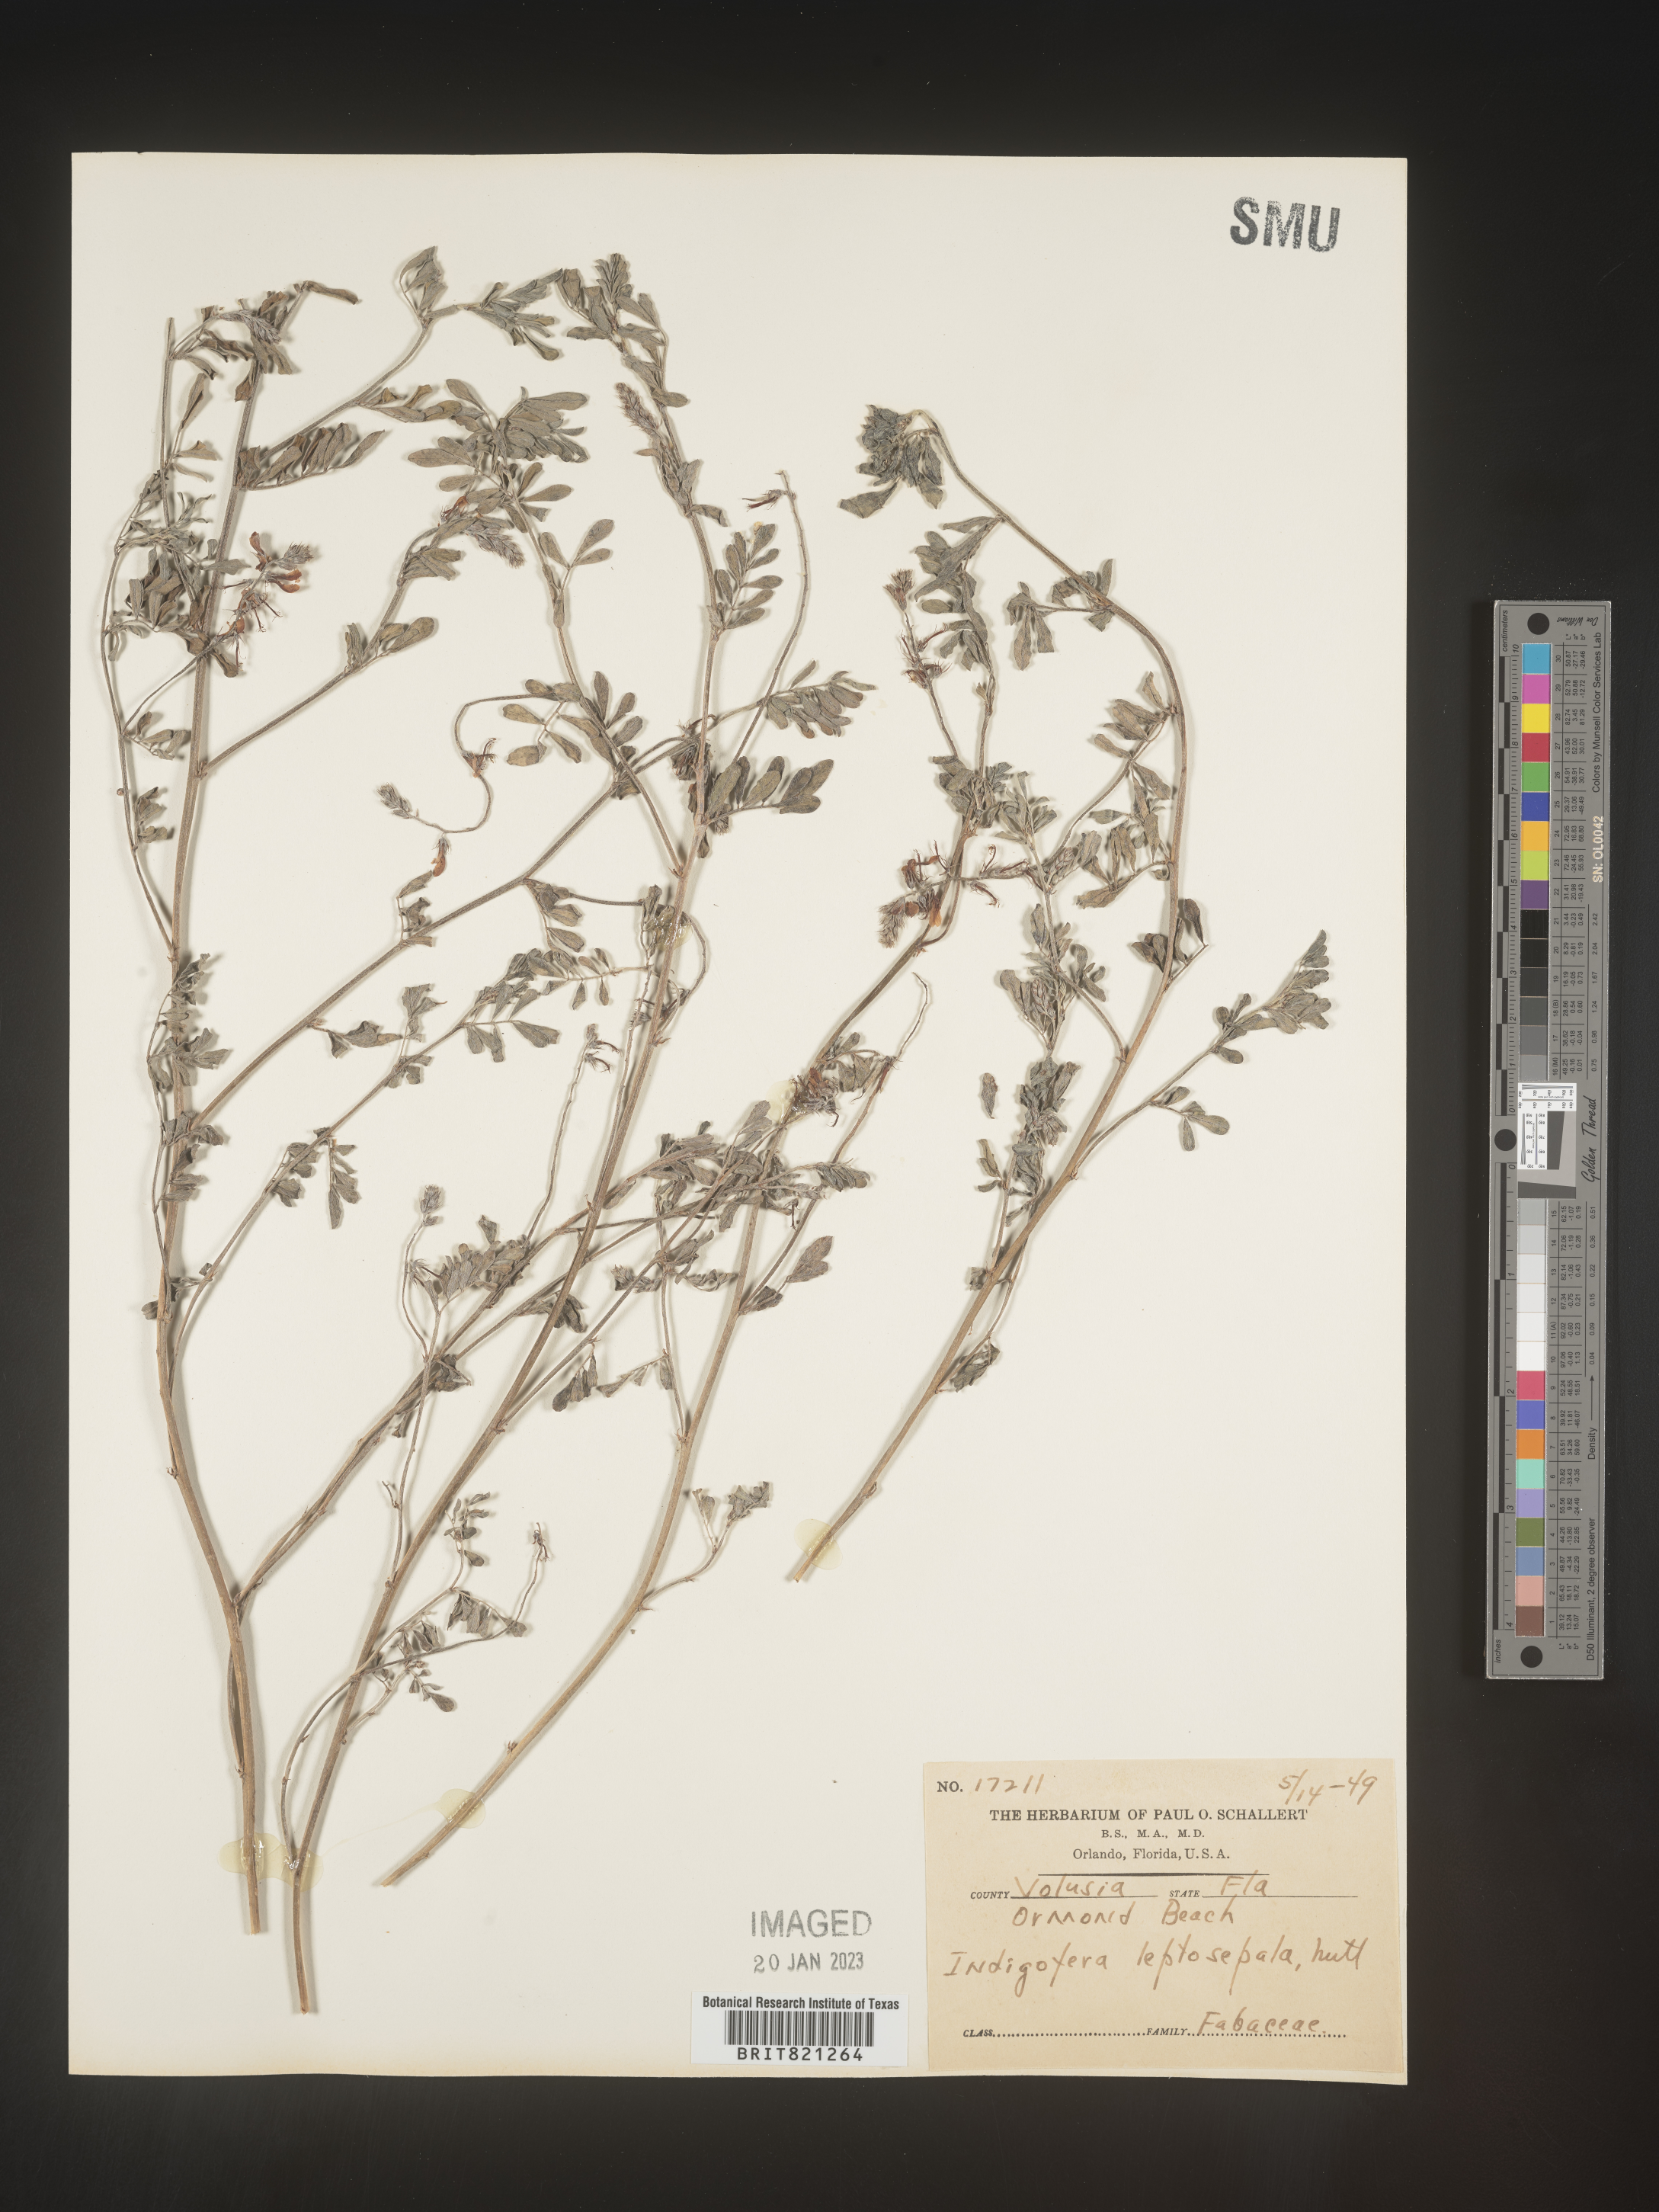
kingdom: Plantae
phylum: Tracheophyta
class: Magnoliopsida
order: Fabales
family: Fabaceae
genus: Indigofera
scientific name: Indigofera miniata
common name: Coast indigo
